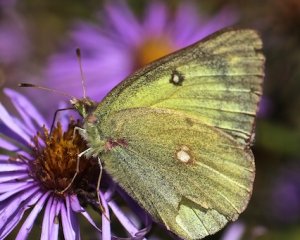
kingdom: Animalia
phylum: Arthropoda
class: Insecta
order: Lepidoptera
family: Pieridae
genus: Colias
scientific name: Colias philodice
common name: Clouded Sulphur
